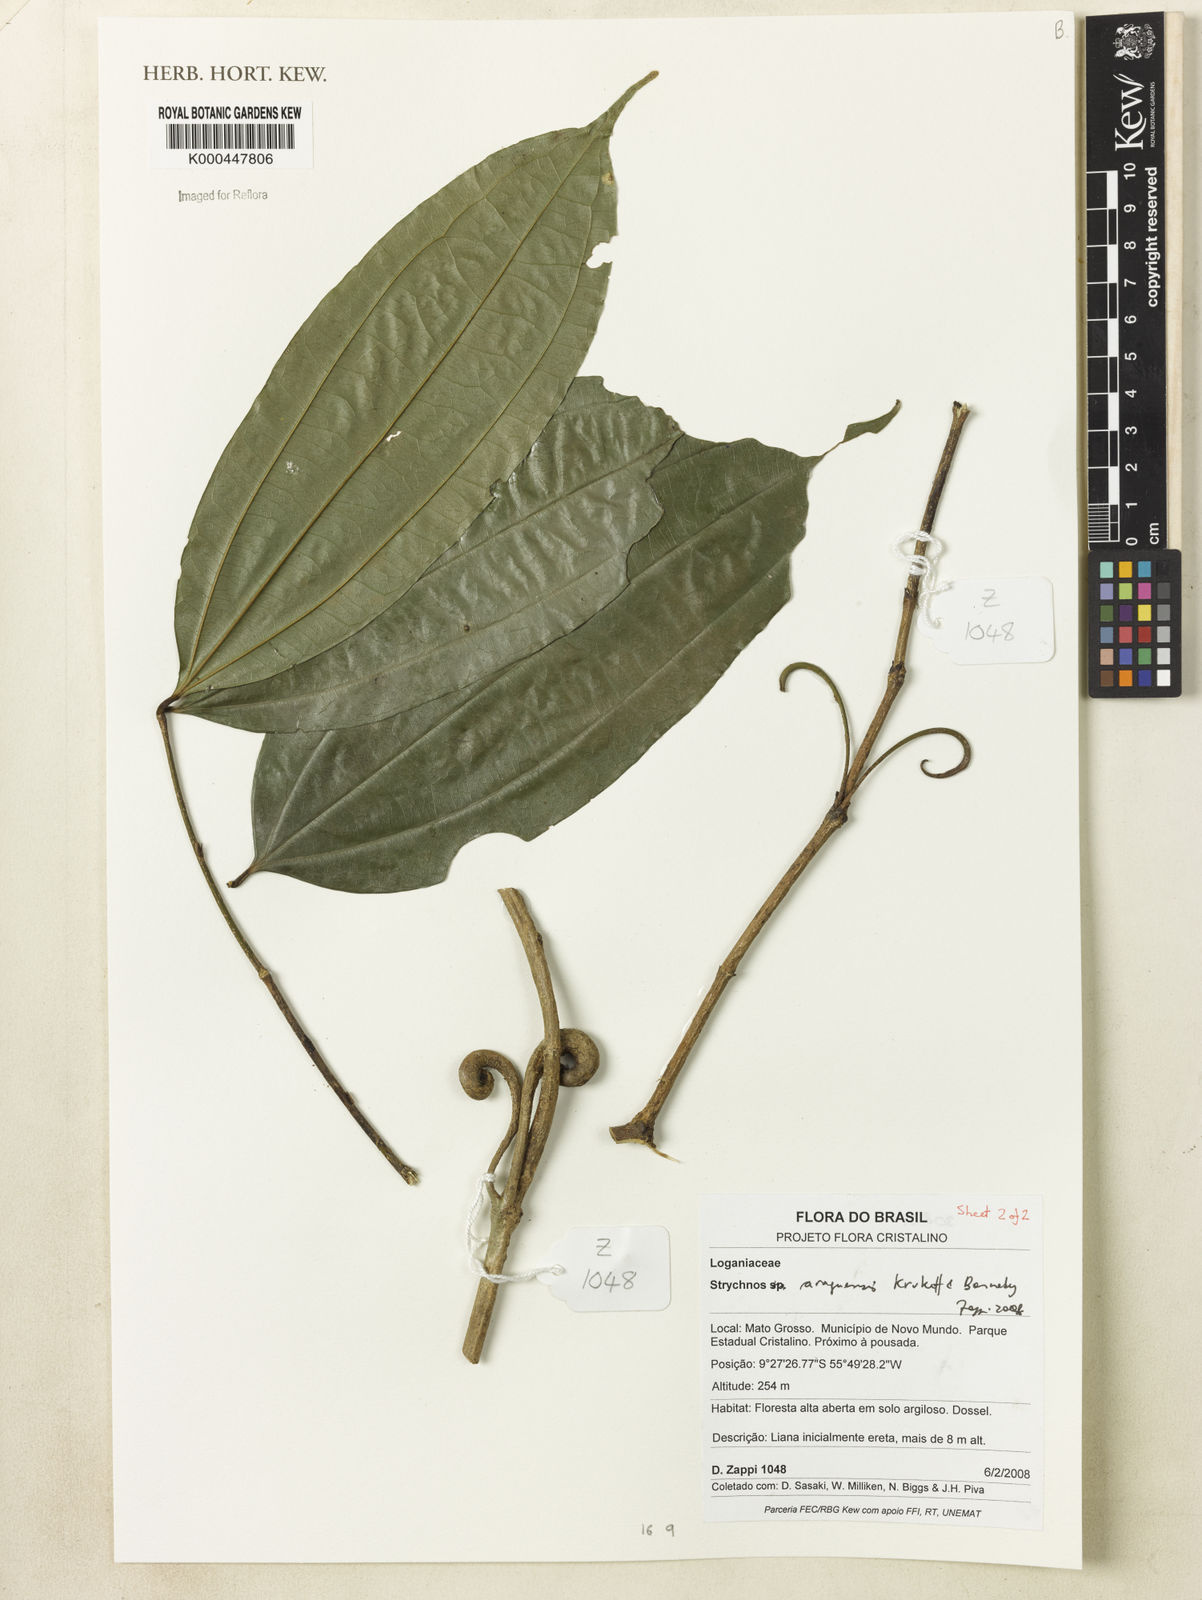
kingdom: Plantae
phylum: Tracheophyta
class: Magnoliopsida
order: Gentianales
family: Loganiaceae
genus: Strychnos
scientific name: Strychnos araguaensis
